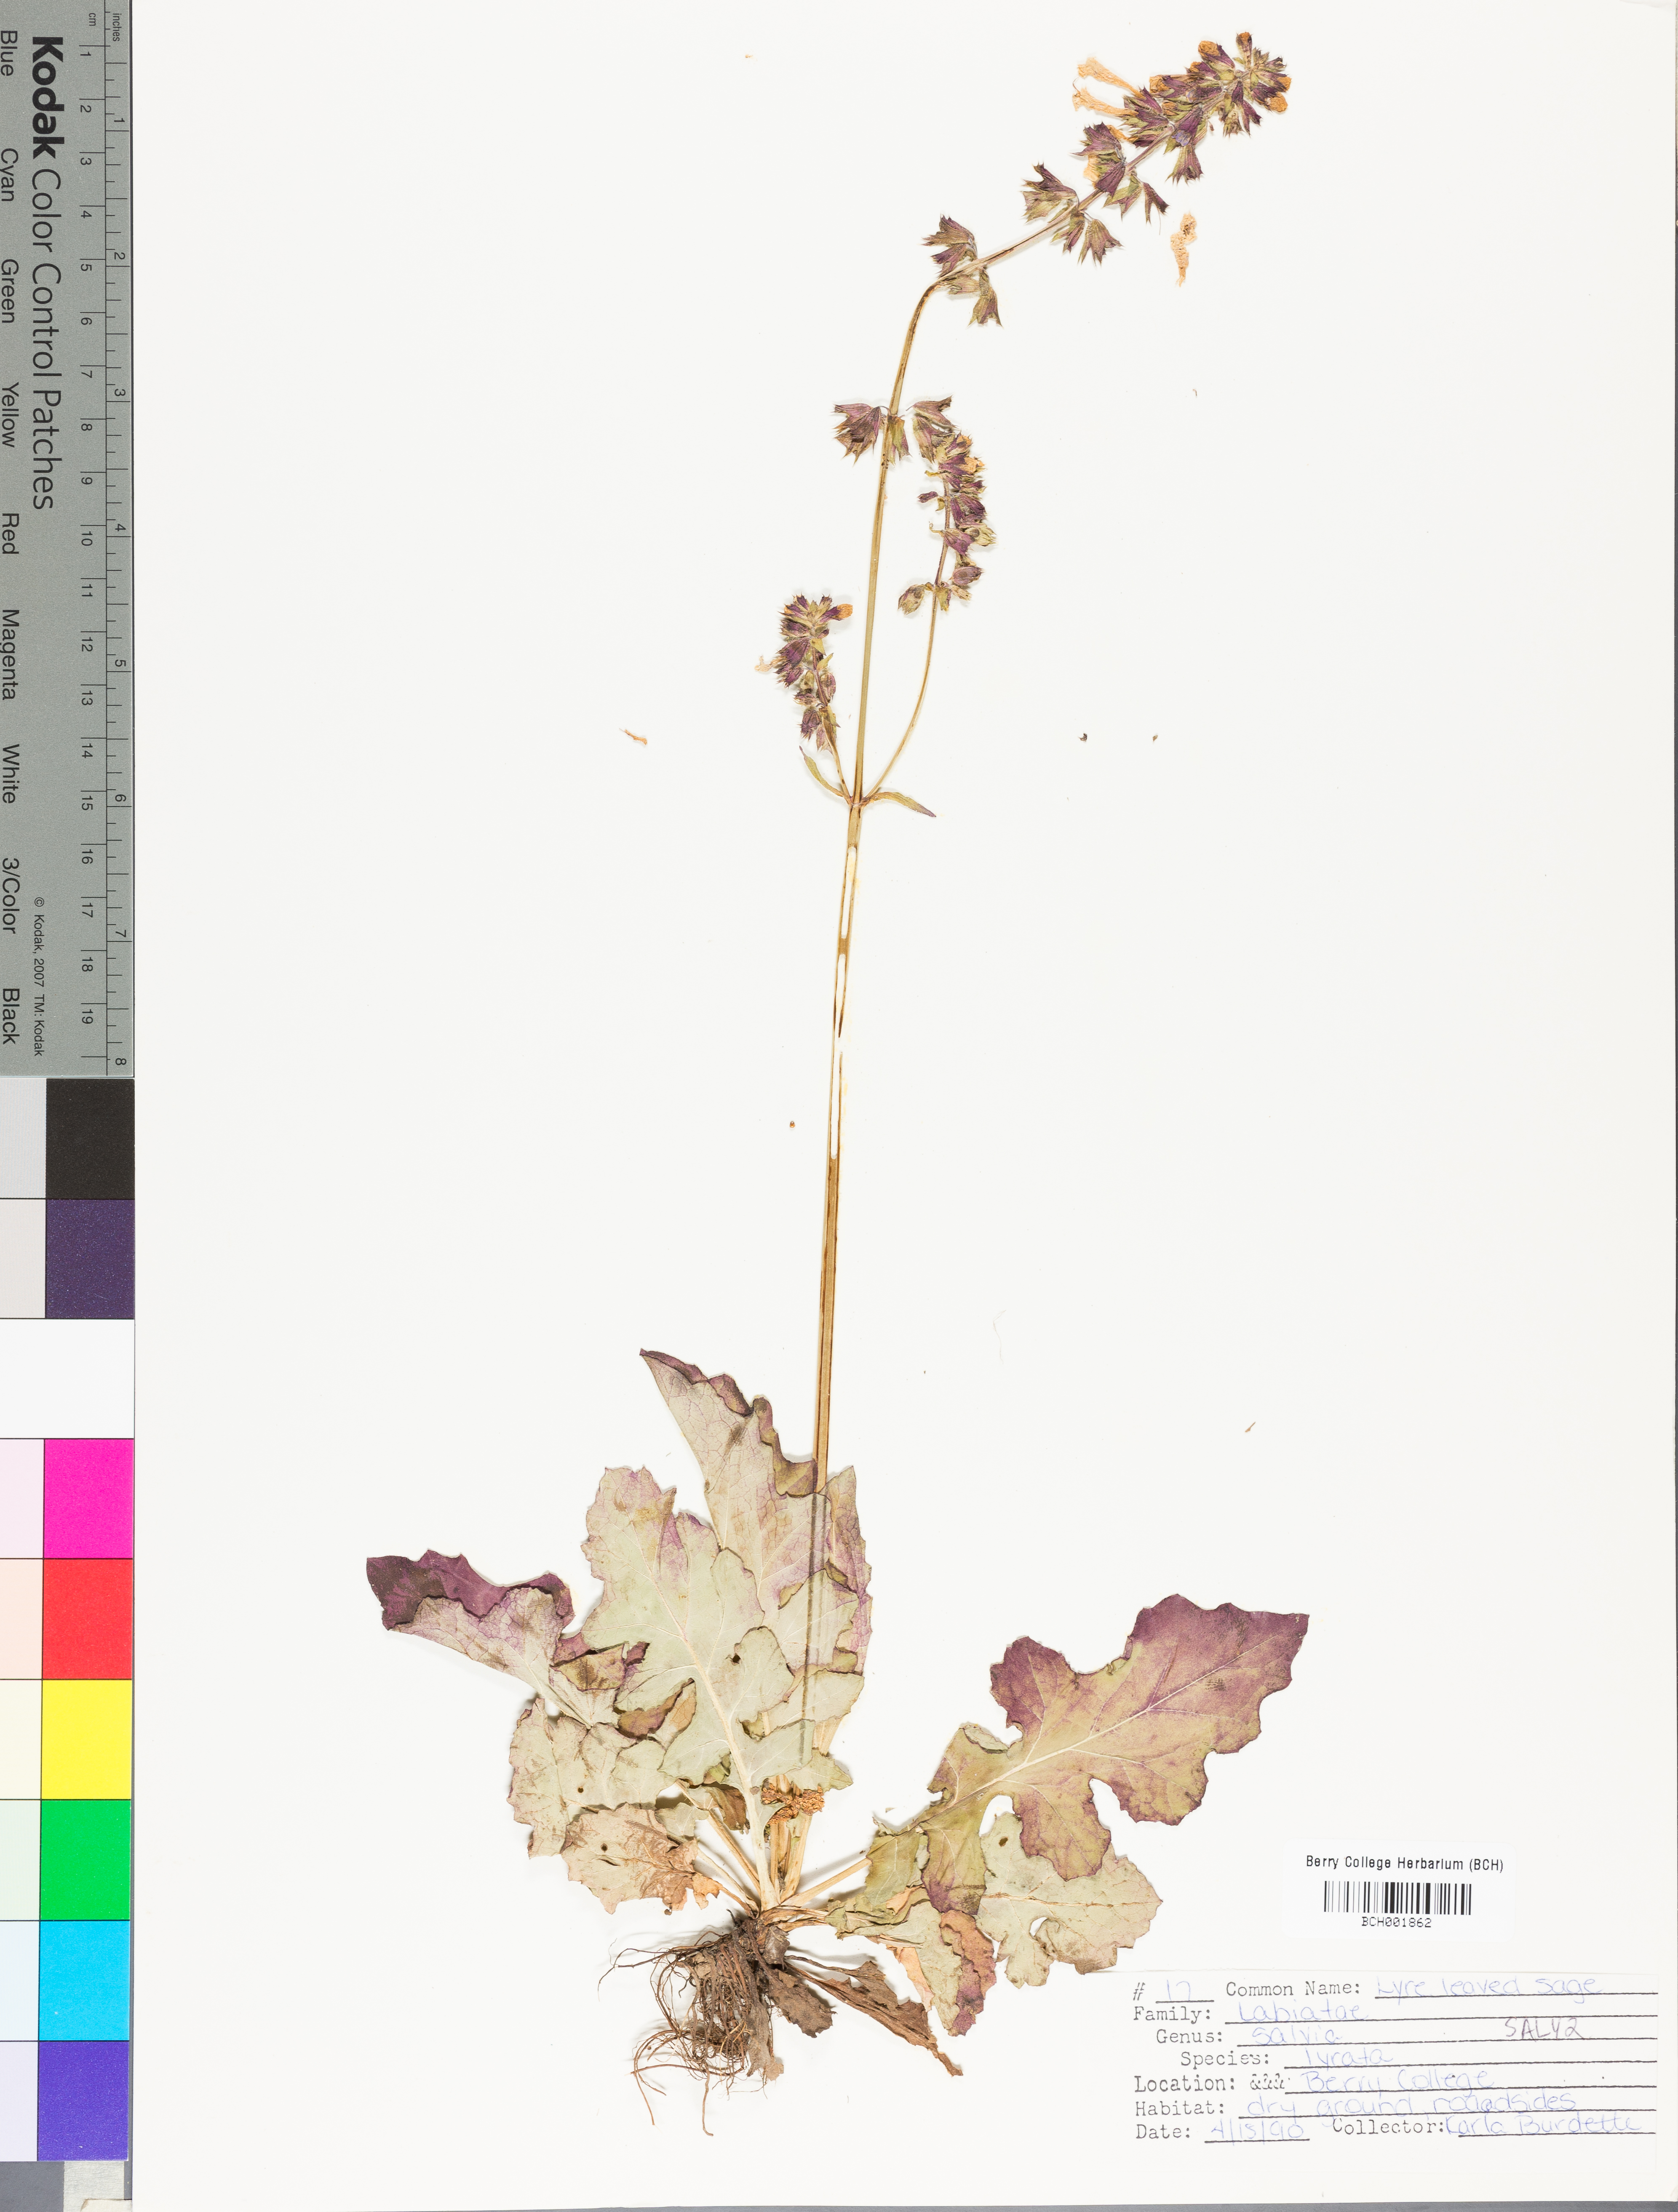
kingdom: Plantae
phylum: Tracheophyta
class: Magnoliopsida
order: Lamiales
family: Lamiaceae
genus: Salvia
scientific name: Salvia lyrata
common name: Cancerweed
